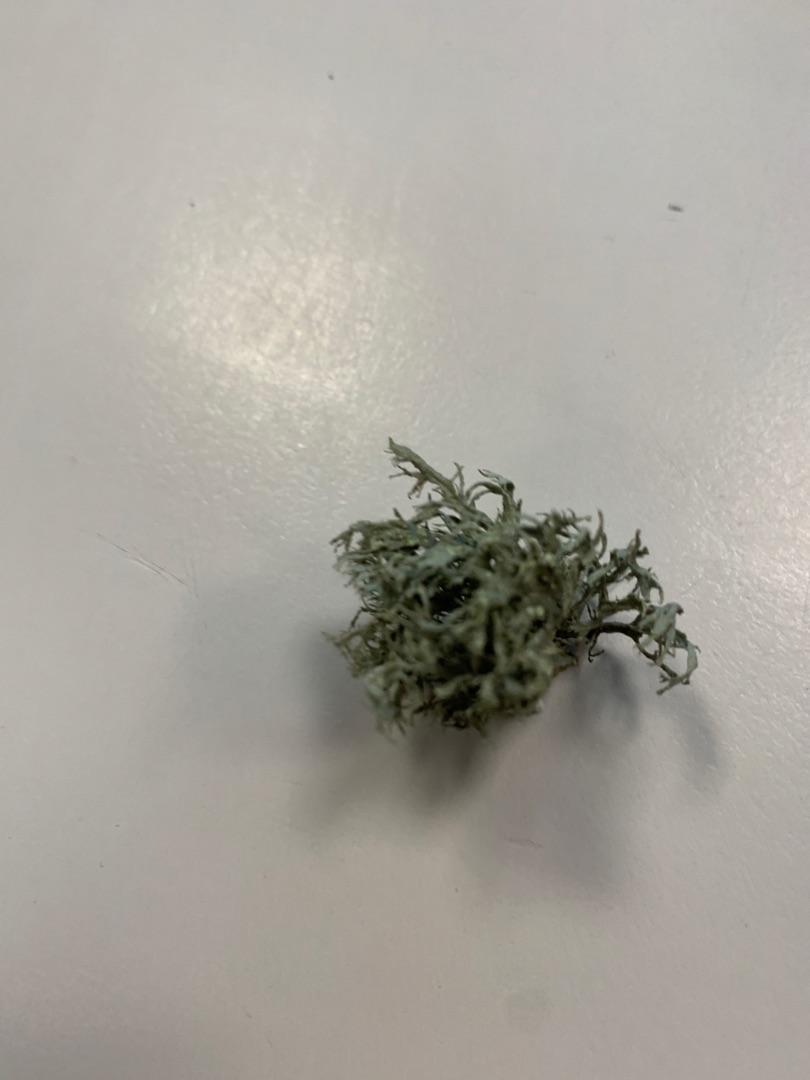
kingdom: Fungi
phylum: Ascomycota
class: Lecanoromycetes
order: Lecanorales
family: Parmeliaceae
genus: Evernia
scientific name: Evernia prunastri
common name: Almindelig slåenlav
